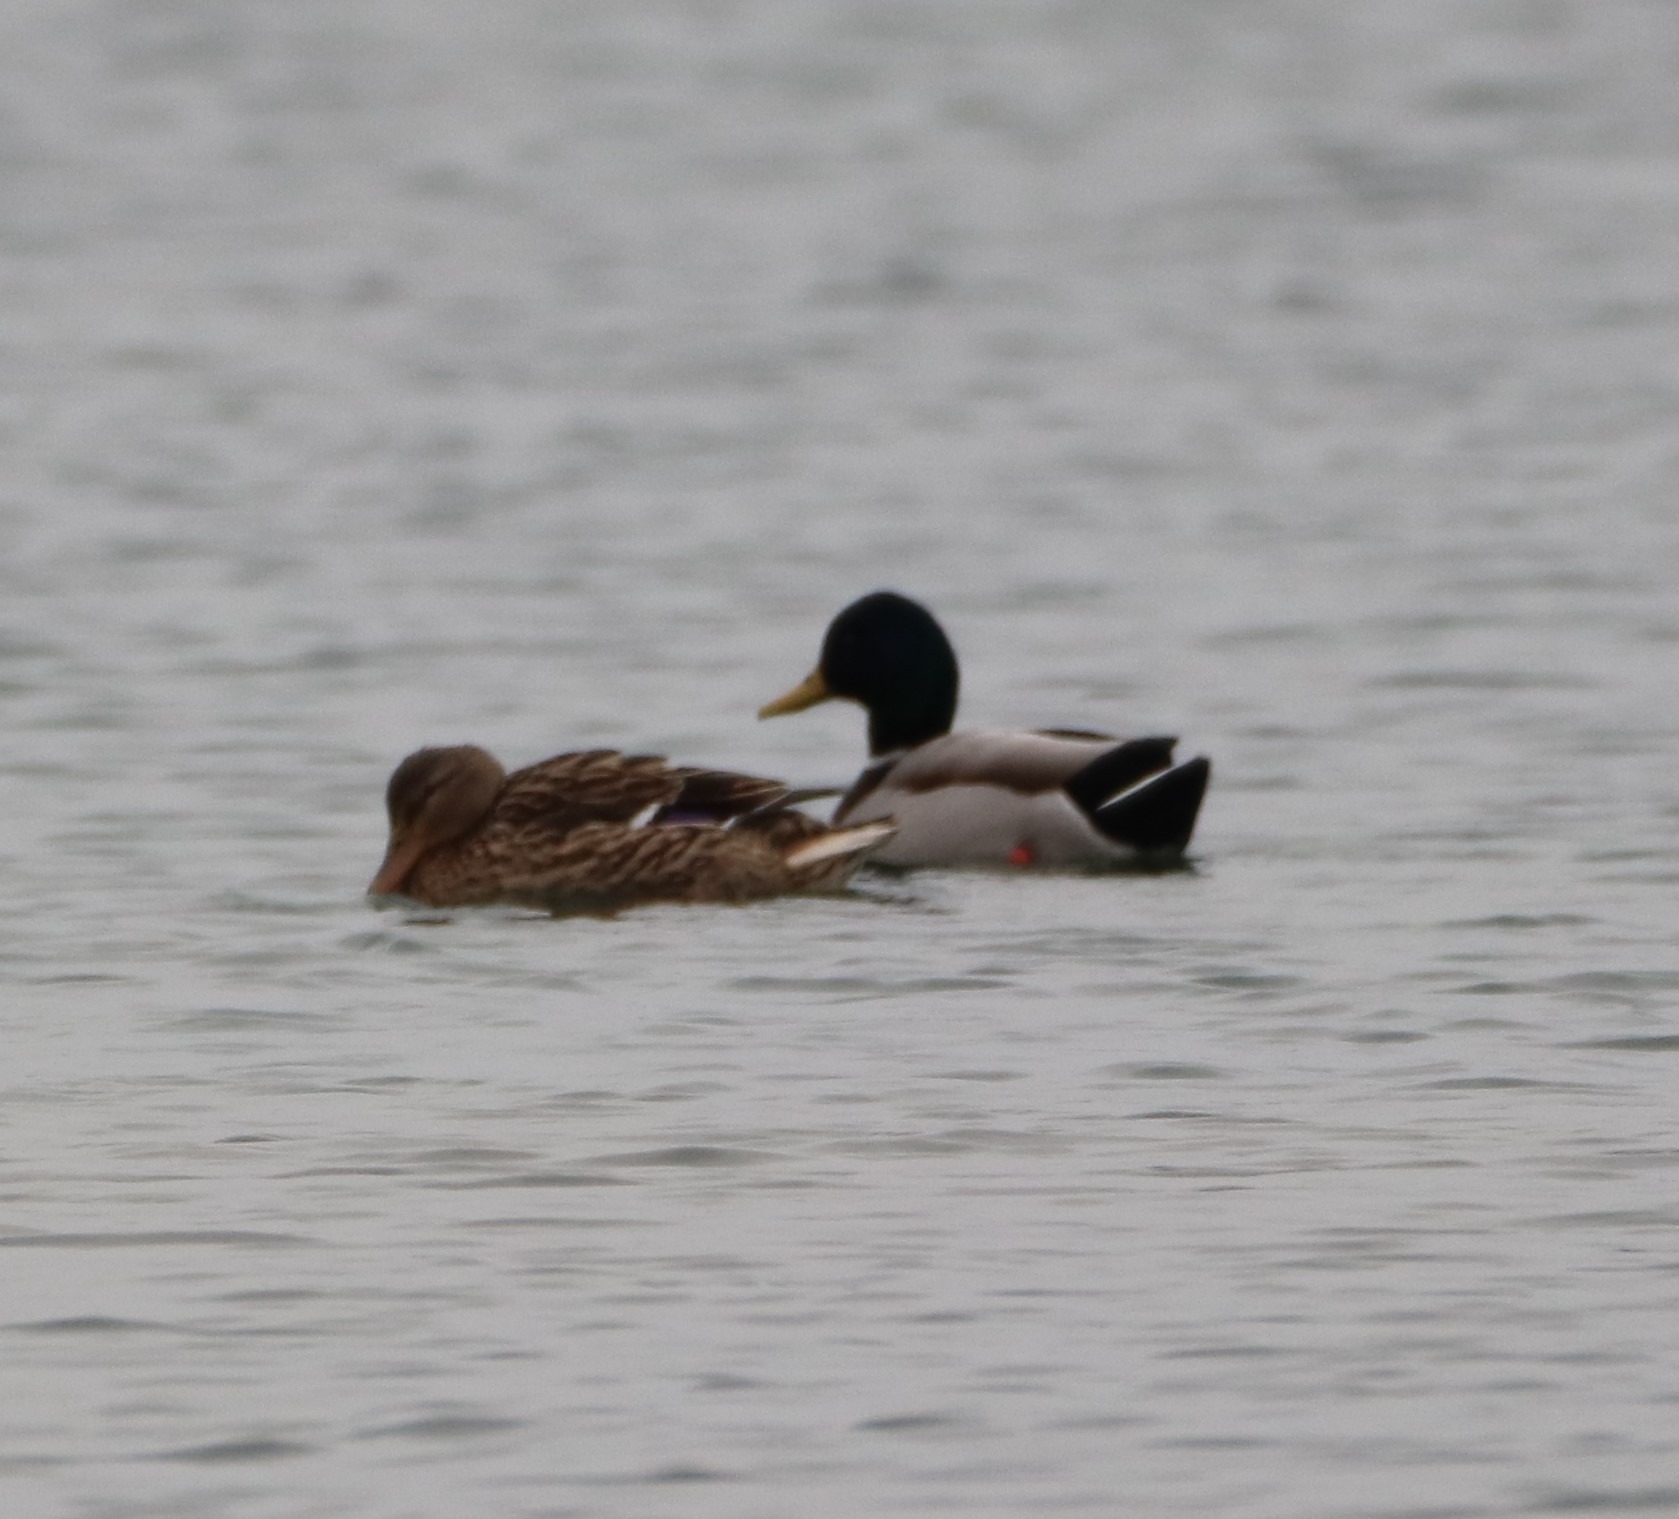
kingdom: Animalia
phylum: Chordata
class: Aves
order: Anseriformes
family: Anatidae
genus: Anas
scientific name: Anas platyrhynchos
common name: Gråand
